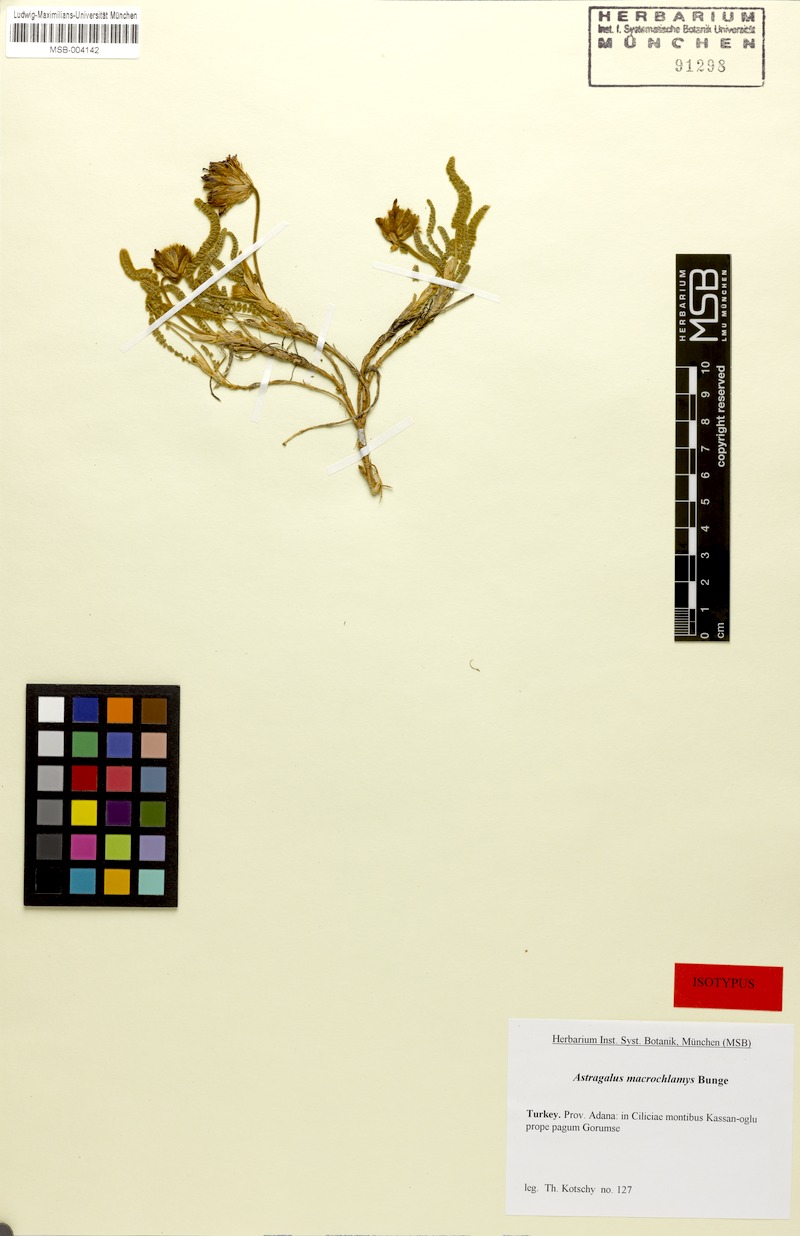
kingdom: Plantae
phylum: Tracheophyta
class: Magnoliopsida
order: Fabales
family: Fabaceae
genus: Astragalus
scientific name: Astragalus densifolius
